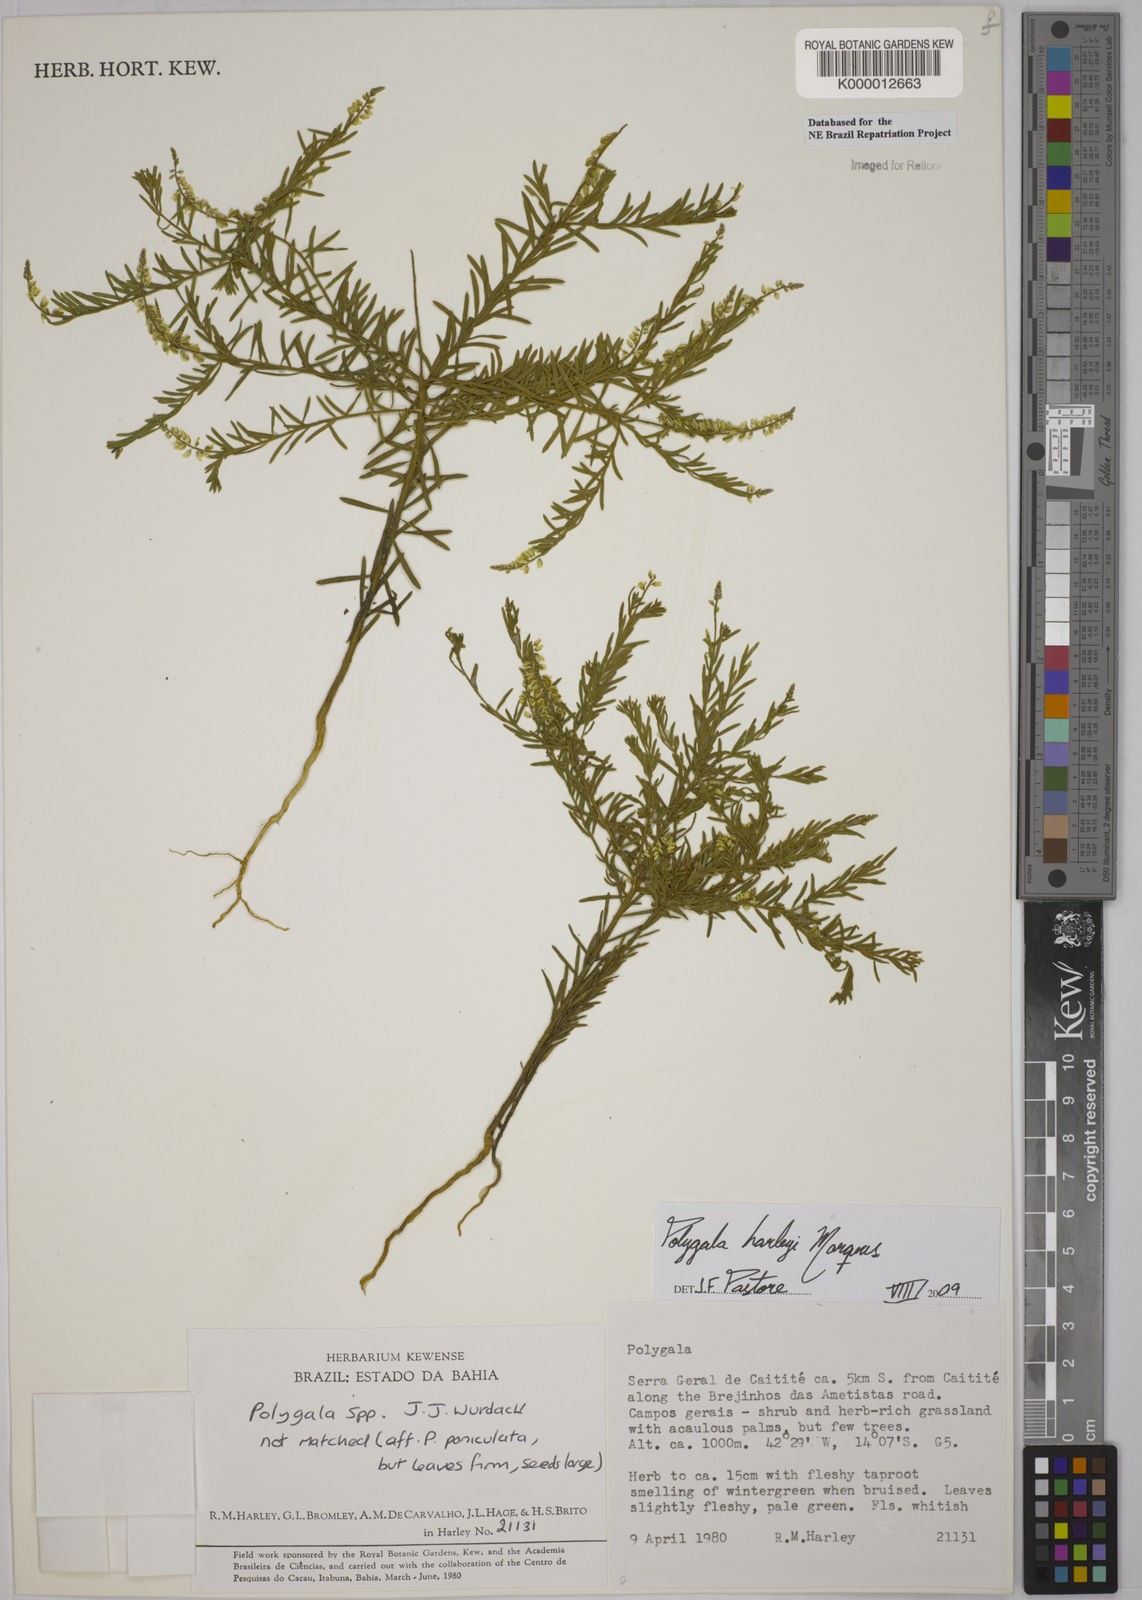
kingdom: Plantae
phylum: Tracheophyta
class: Magnoliopsida
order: Fabales
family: Polygalaceae
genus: Polygala
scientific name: Polygala
